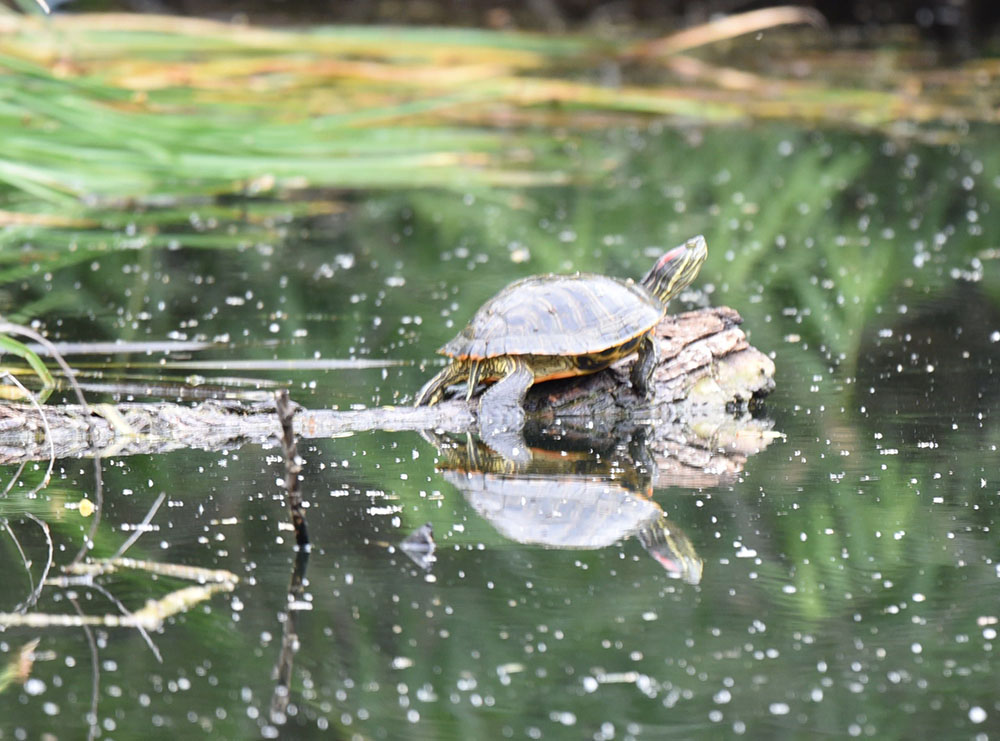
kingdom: Animalia
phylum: Chordata
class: Testudines
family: Emydidae
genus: Trachemys
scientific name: Trachemys scripta
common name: Slider
